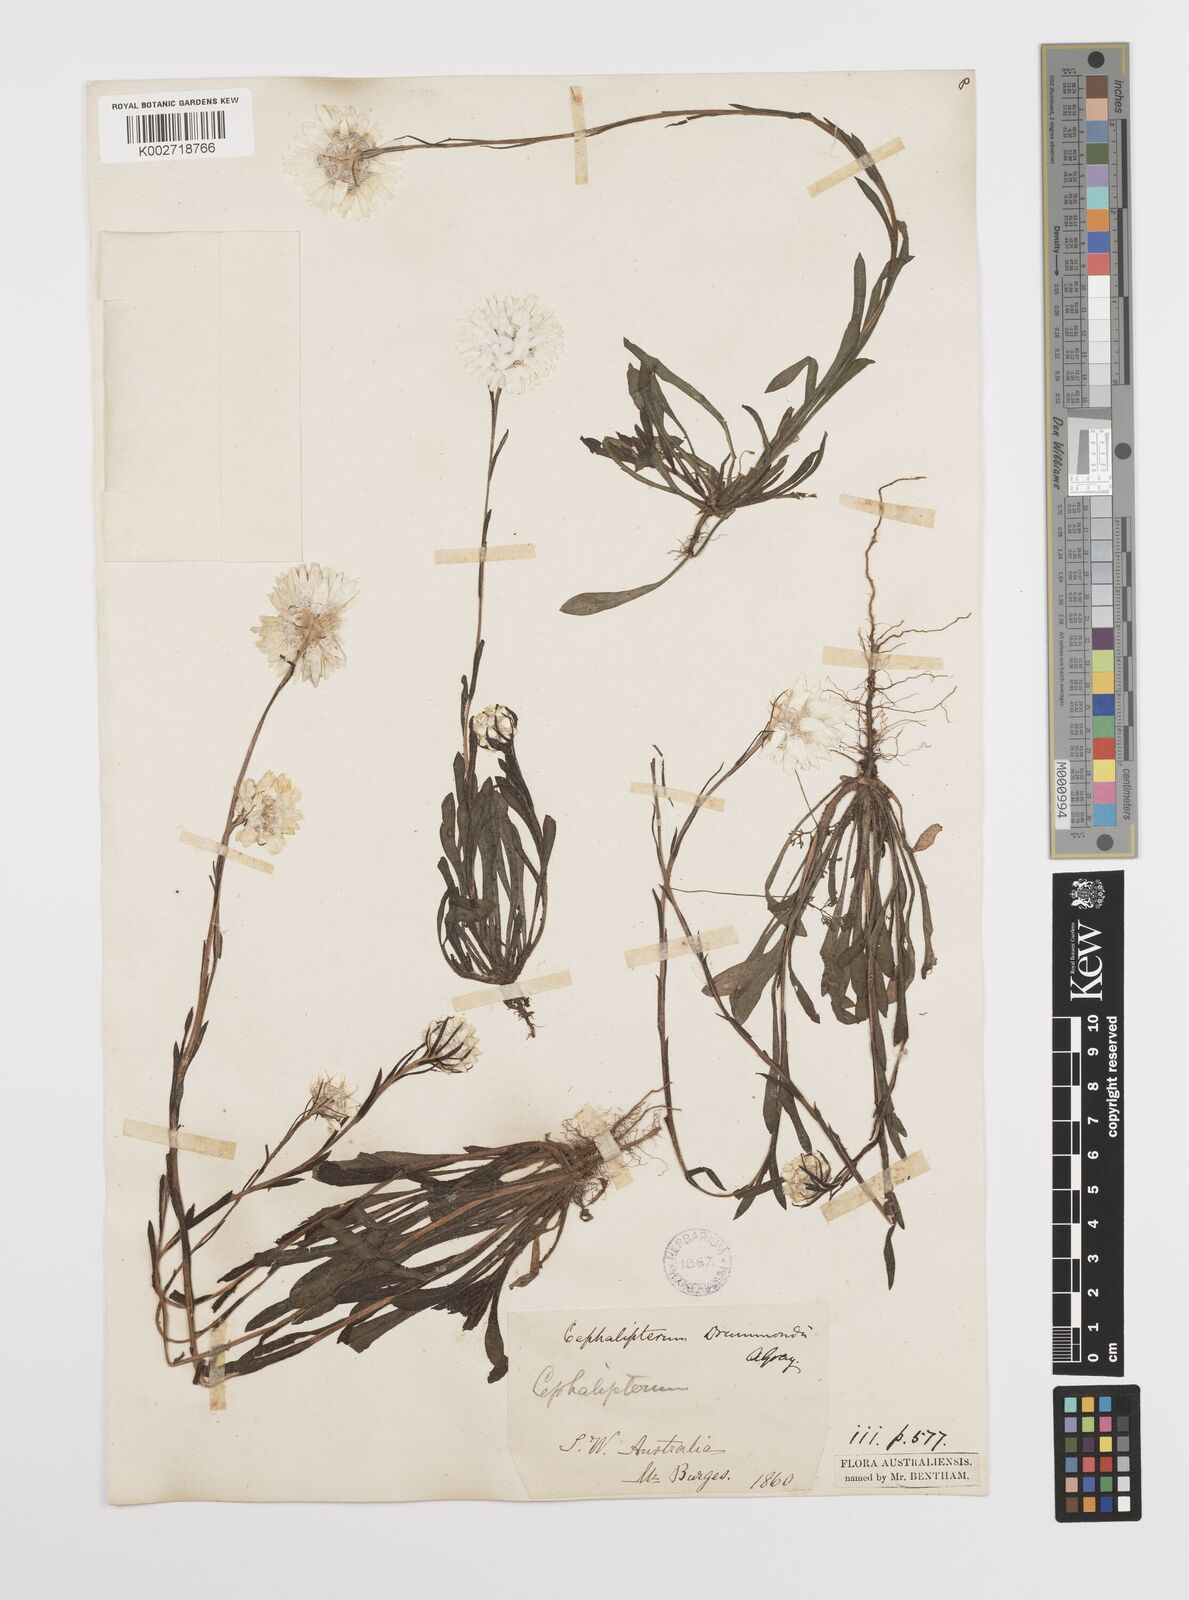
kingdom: Plantae
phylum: Tracheophyta
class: Magnoliopsida
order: Asterales
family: Asteraceae
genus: Cephalipterum
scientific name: Cephalipterum drummondii
